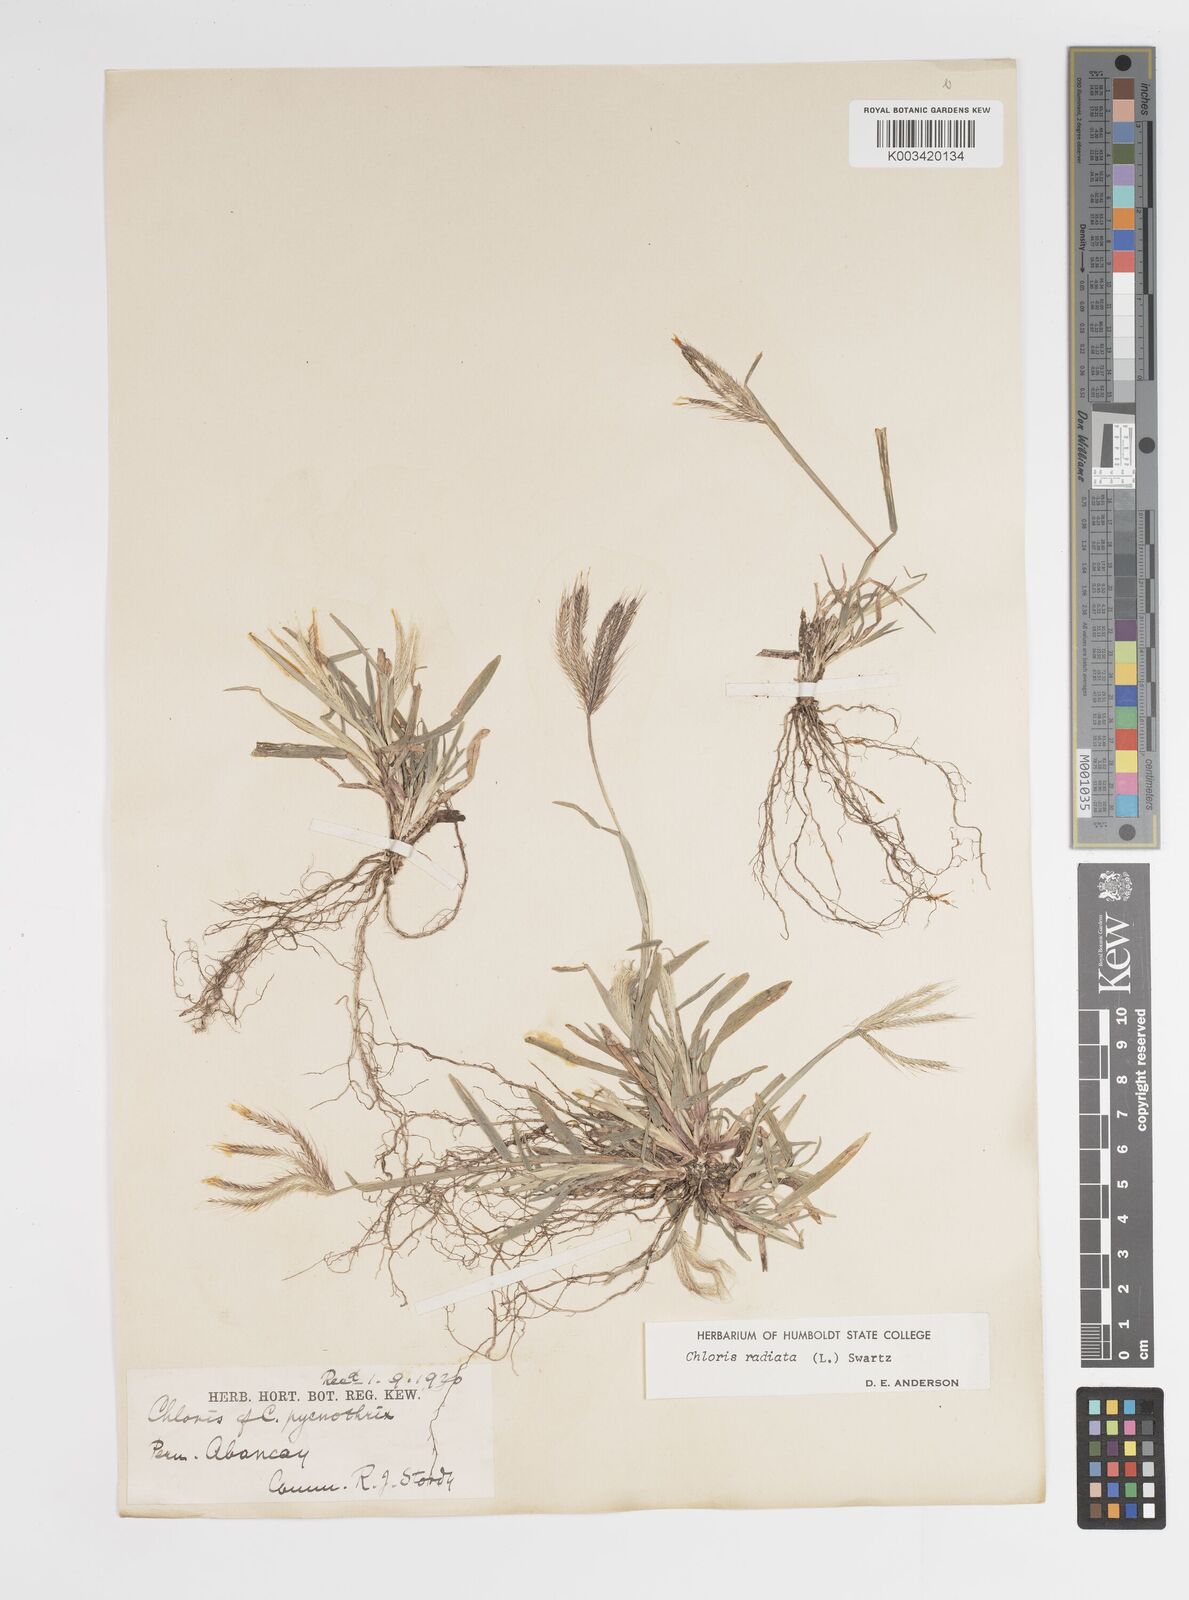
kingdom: Plantae
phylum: Tracheophyta
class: Liliopsida
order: Poales
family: Poaceae
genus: Chloris
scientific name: Chloris radiata
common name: Radiate fingergrass
